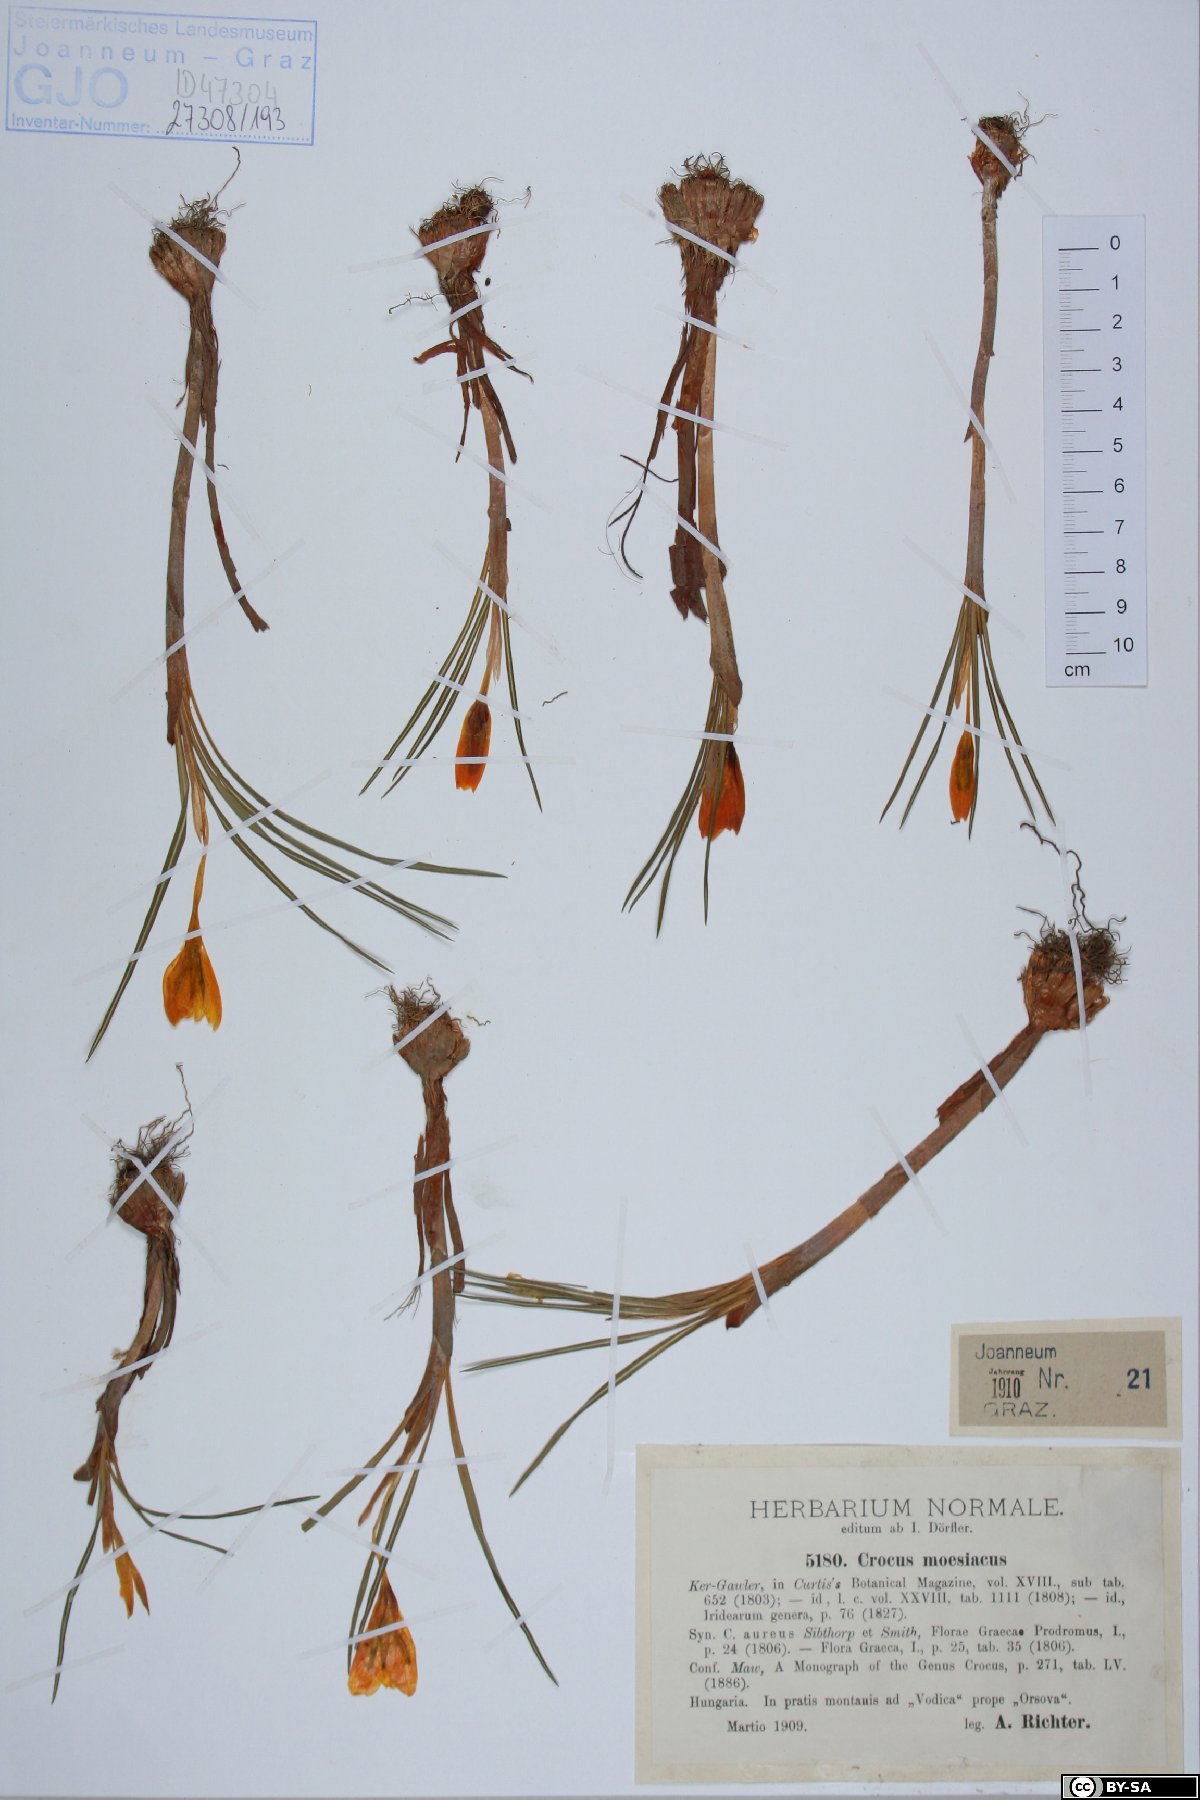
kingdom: Plantae
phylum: Tracheophyta
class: Liliopsida
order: Asparagales
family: Iridaceae
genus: Crocus
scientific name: Crocus flavus
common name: Yellow crocus
